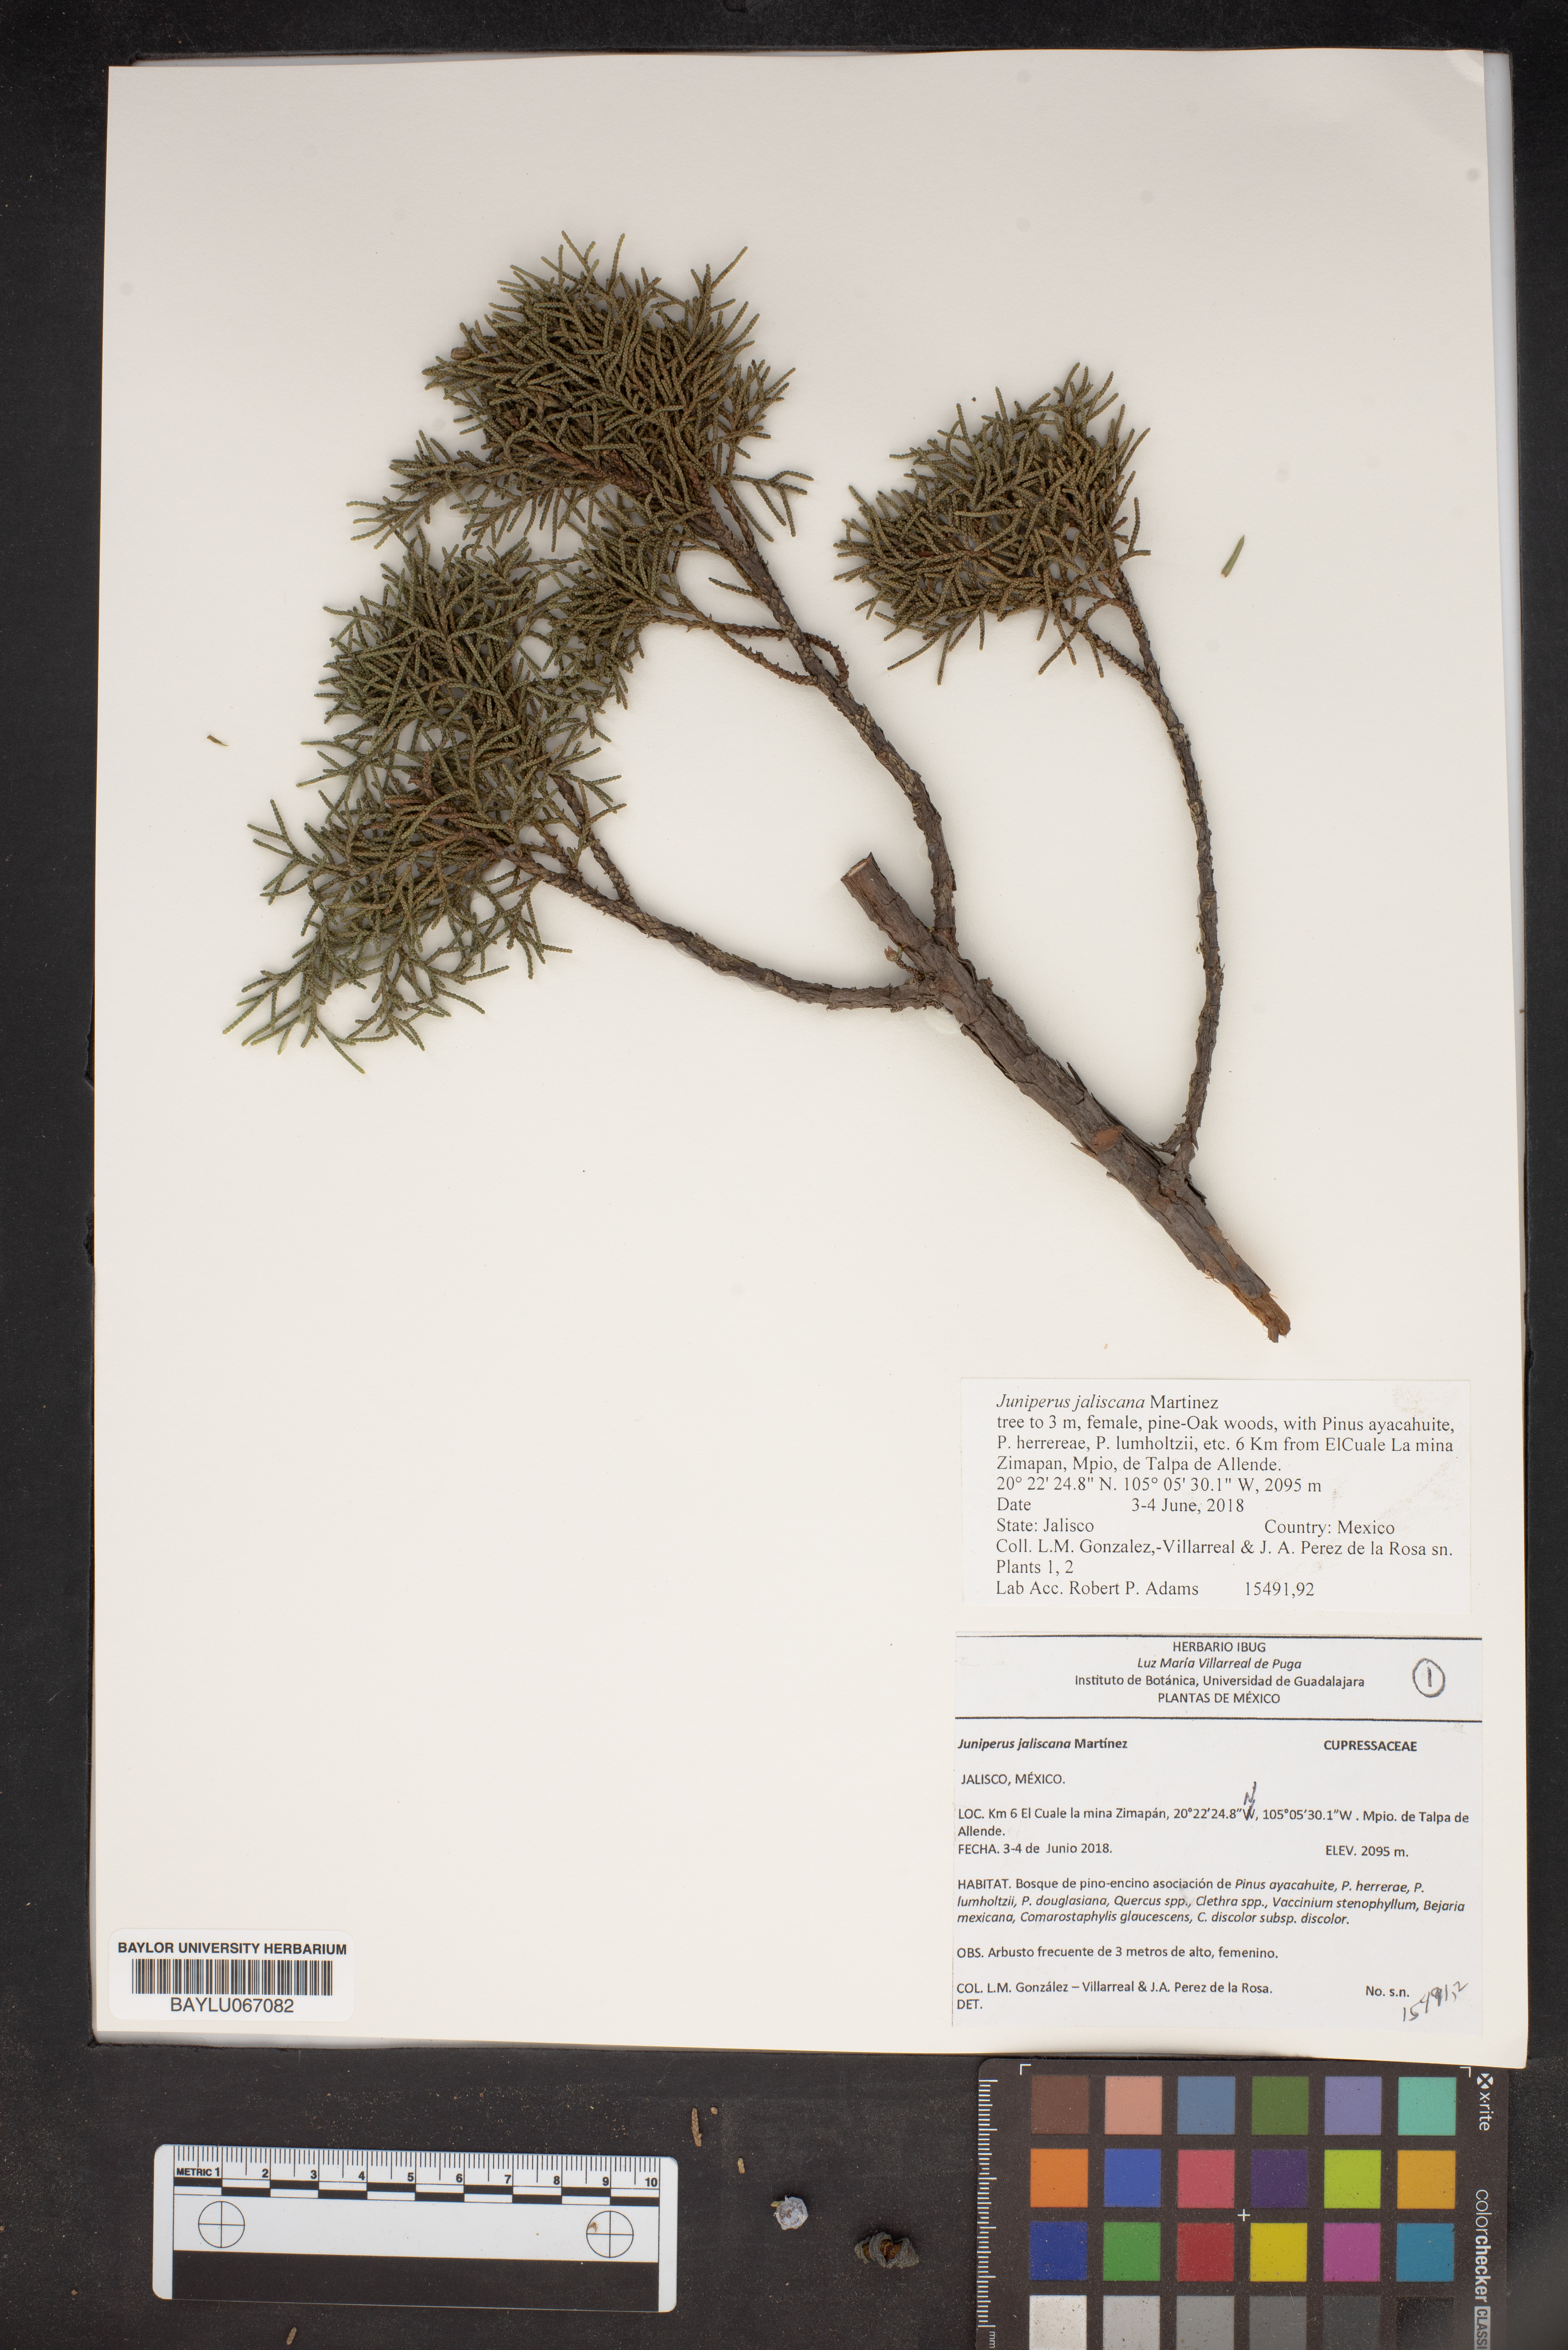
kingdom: Plantae
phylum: Tracheophyta
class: Pinopsida
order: Pinales
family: Cupressaceae
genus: Juniperus
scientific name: Juniperus jaliscana
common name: Jalisco juniper
